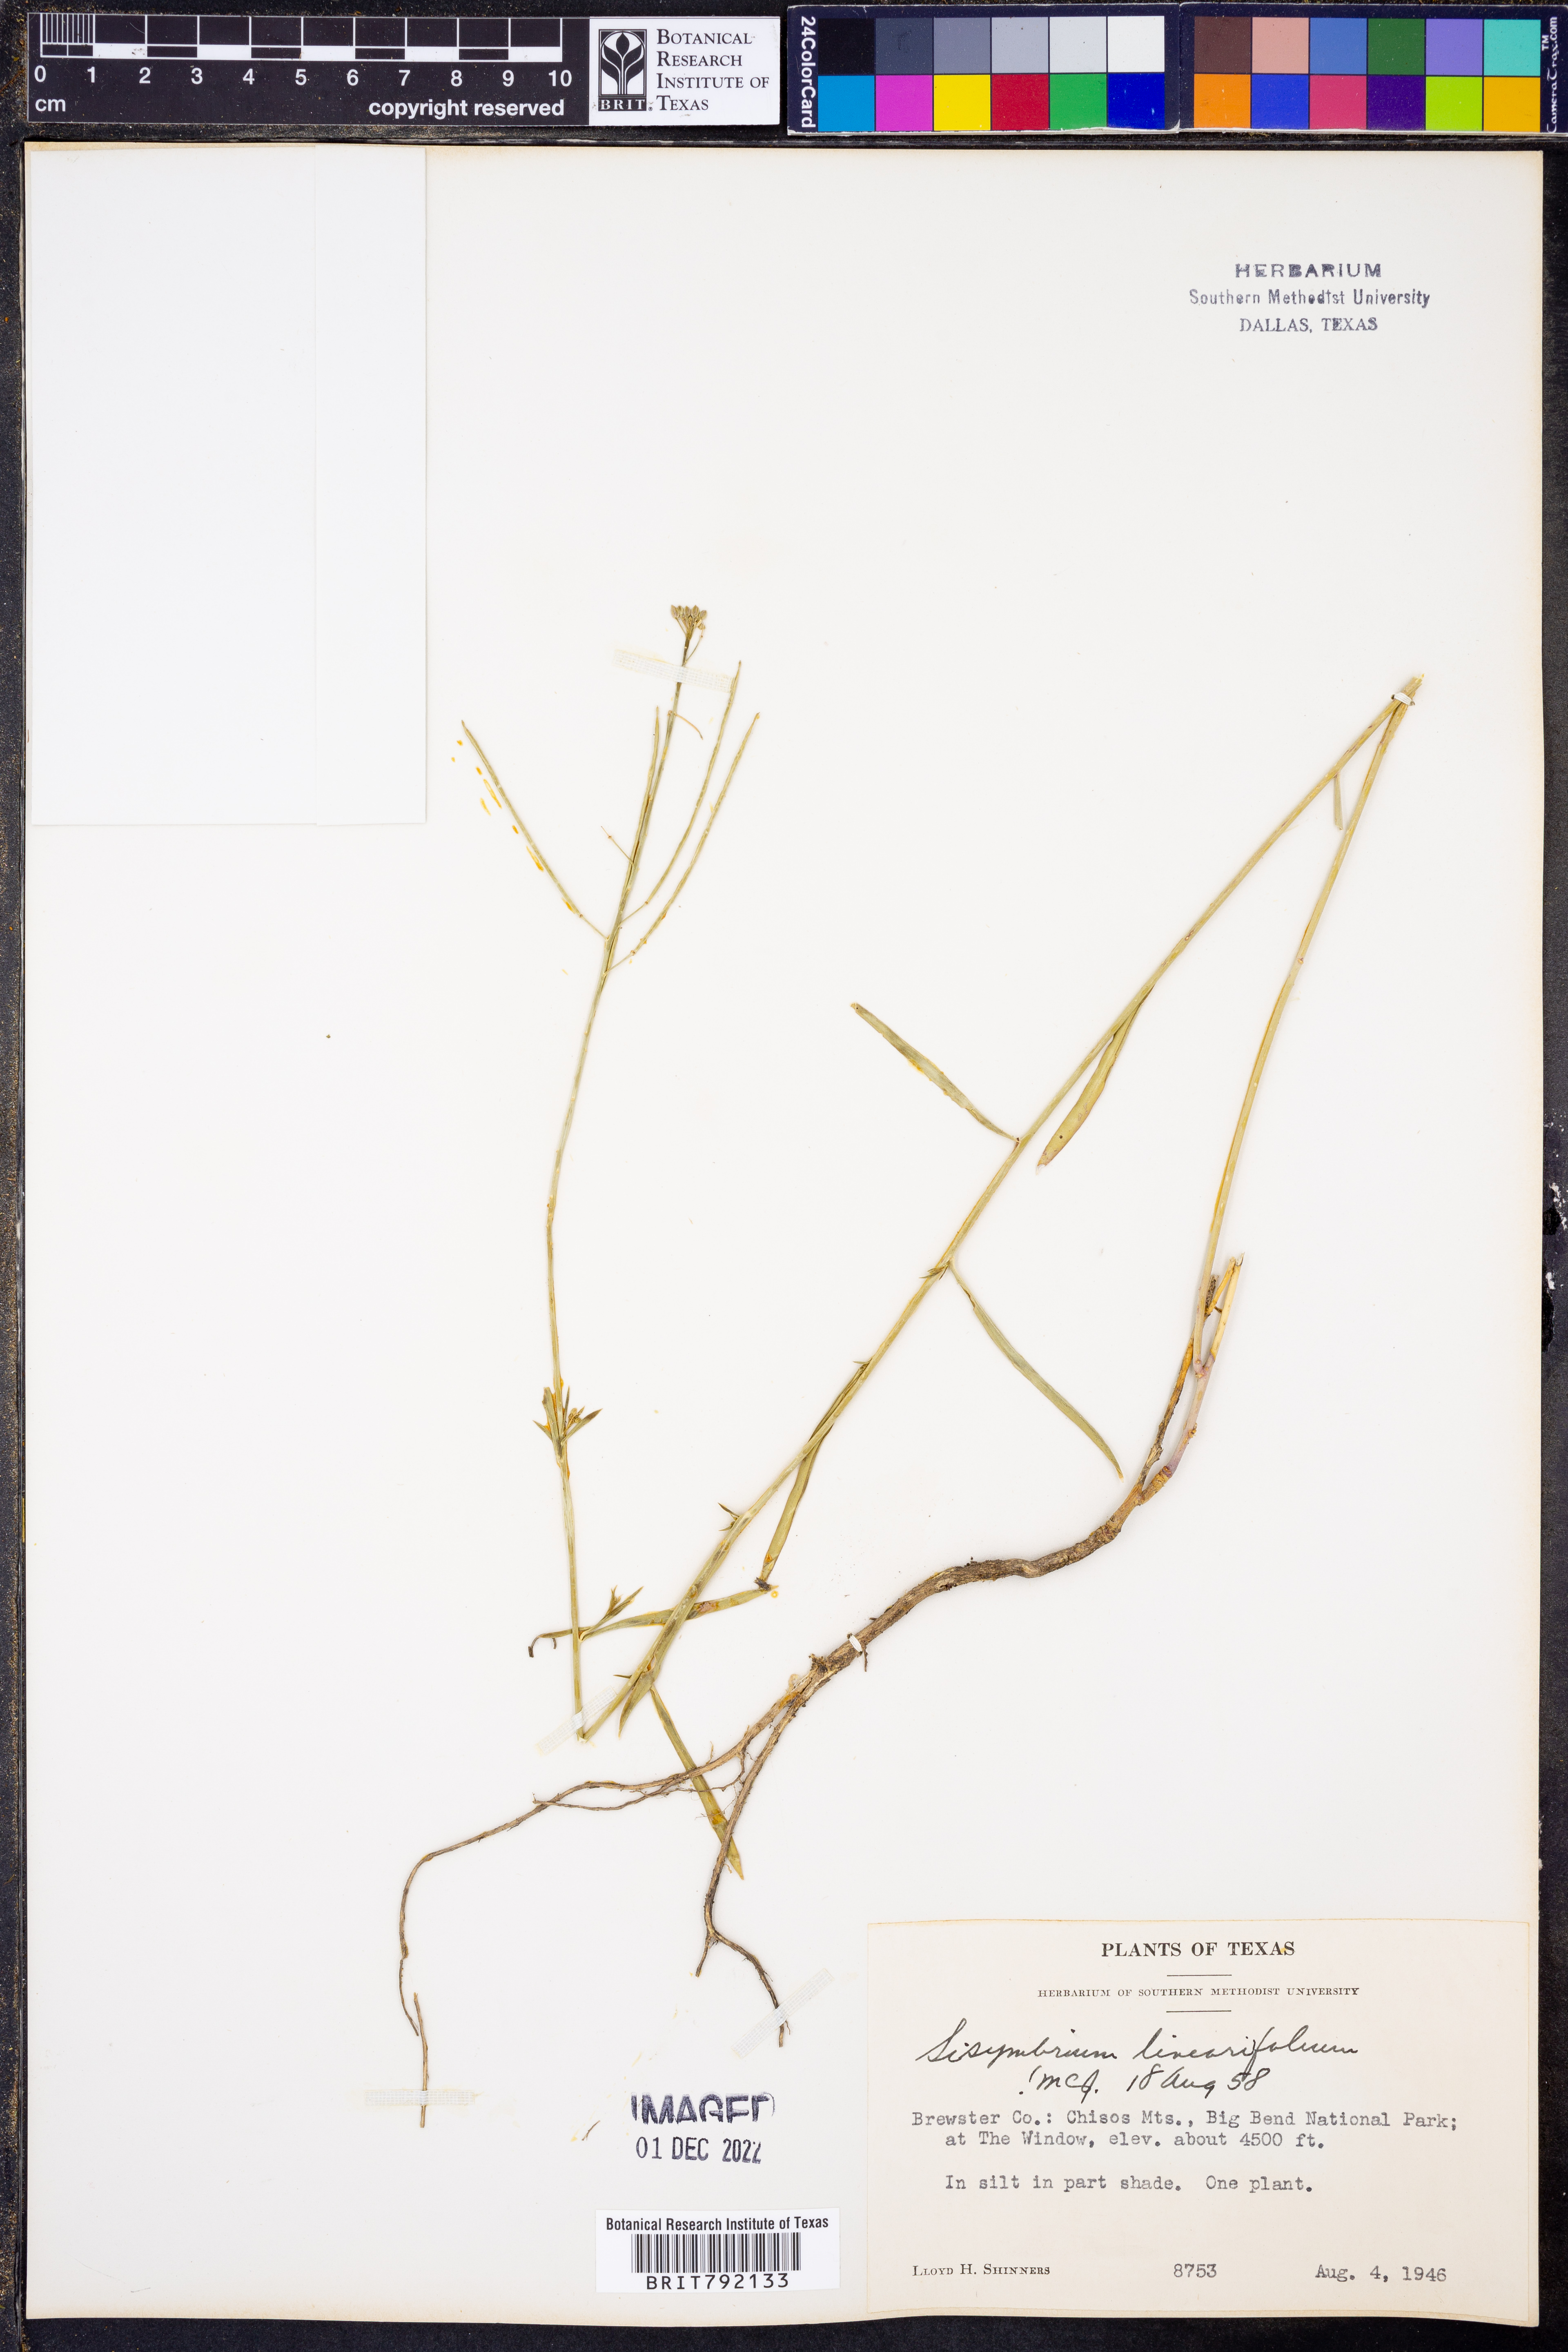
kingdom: Plantae
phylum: Tracheophyta
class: Magnoliopsida
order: Brassicales
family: Brassicaceae
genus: Hesperidanthus
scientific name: Hesperidanthus linearifolius
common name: Slim-leaf plains mustard
